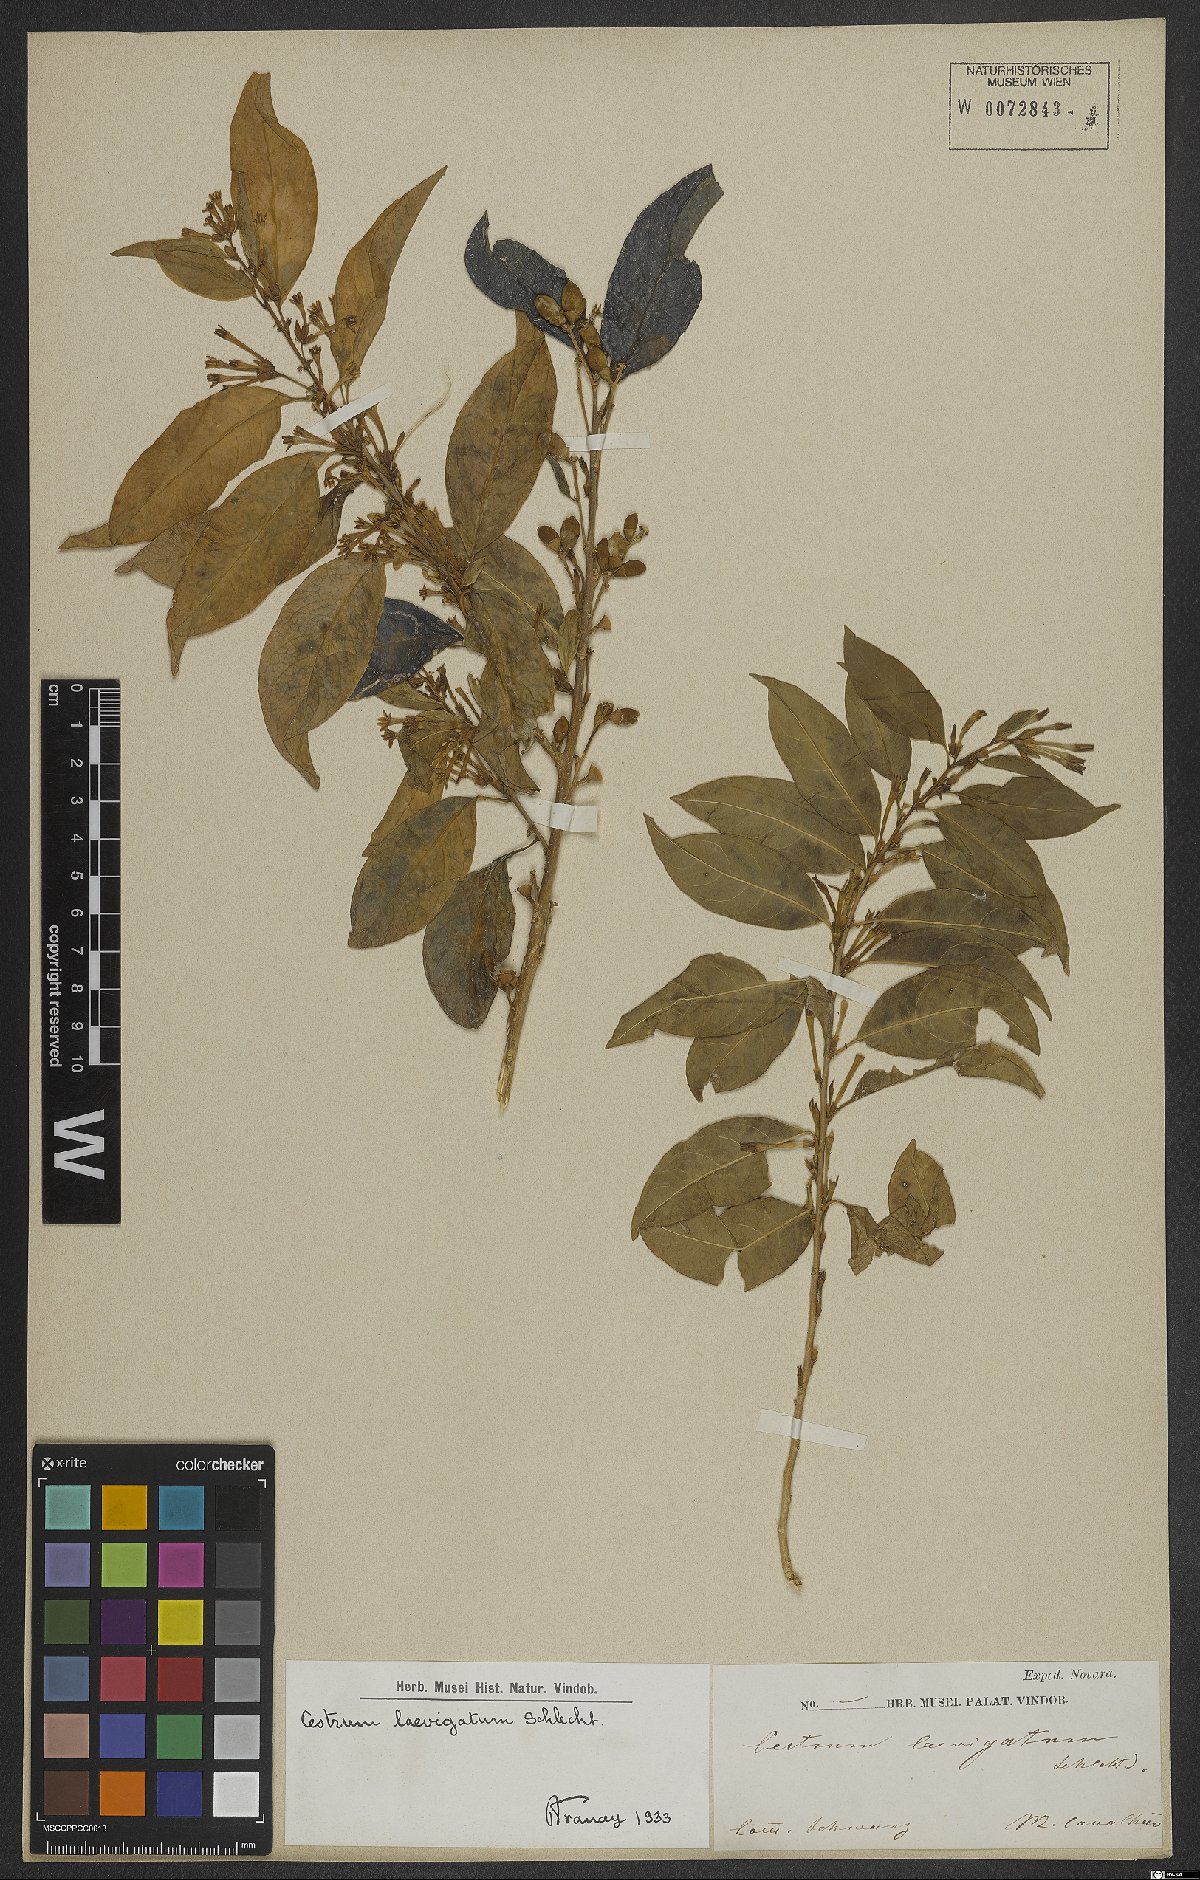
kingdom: Plantae
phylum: Tracheophyta
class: Magnoliopsida
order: Solanales
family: Solanaceae
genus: Cestrum
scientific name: Cestrum laevigatum
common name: Inkberry
